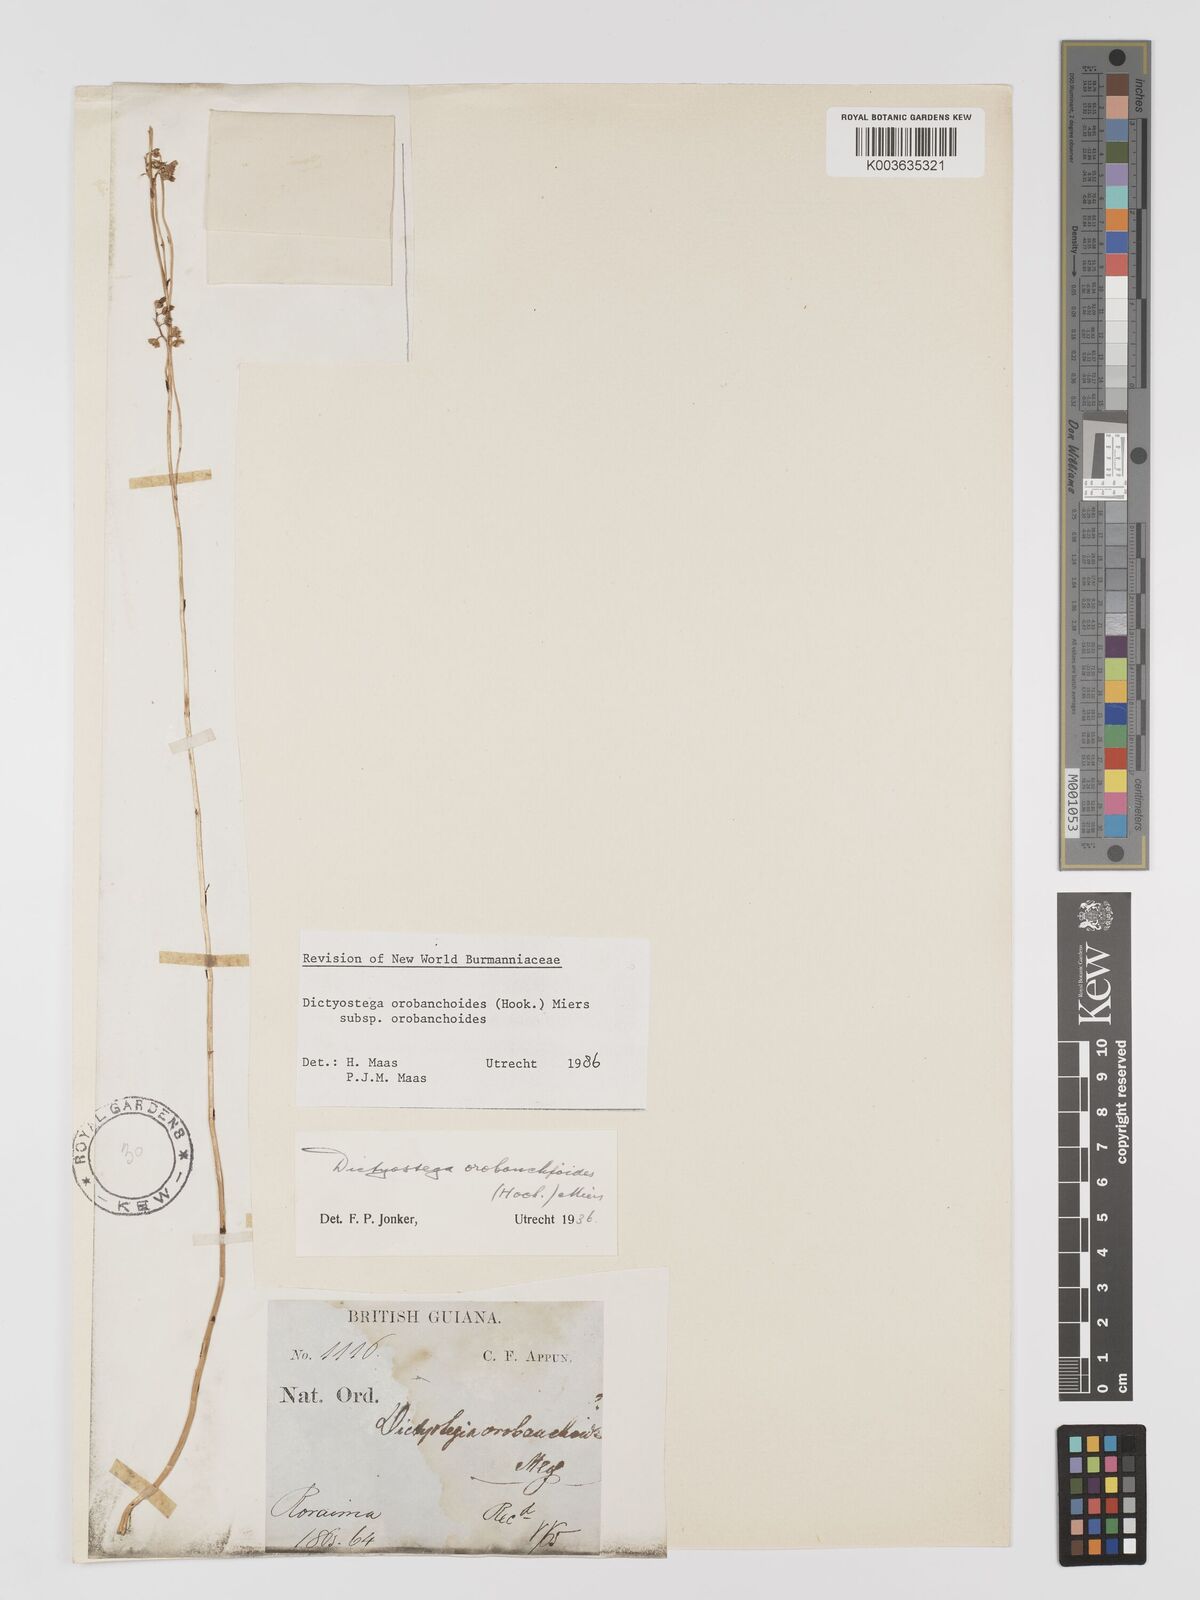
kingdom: Plantae
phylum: Tracheophyta
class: Liliopsida
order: Dioscoreales
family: Burmanniaceae
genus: Dictyostega
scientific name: Dictyostega orobanchoides
